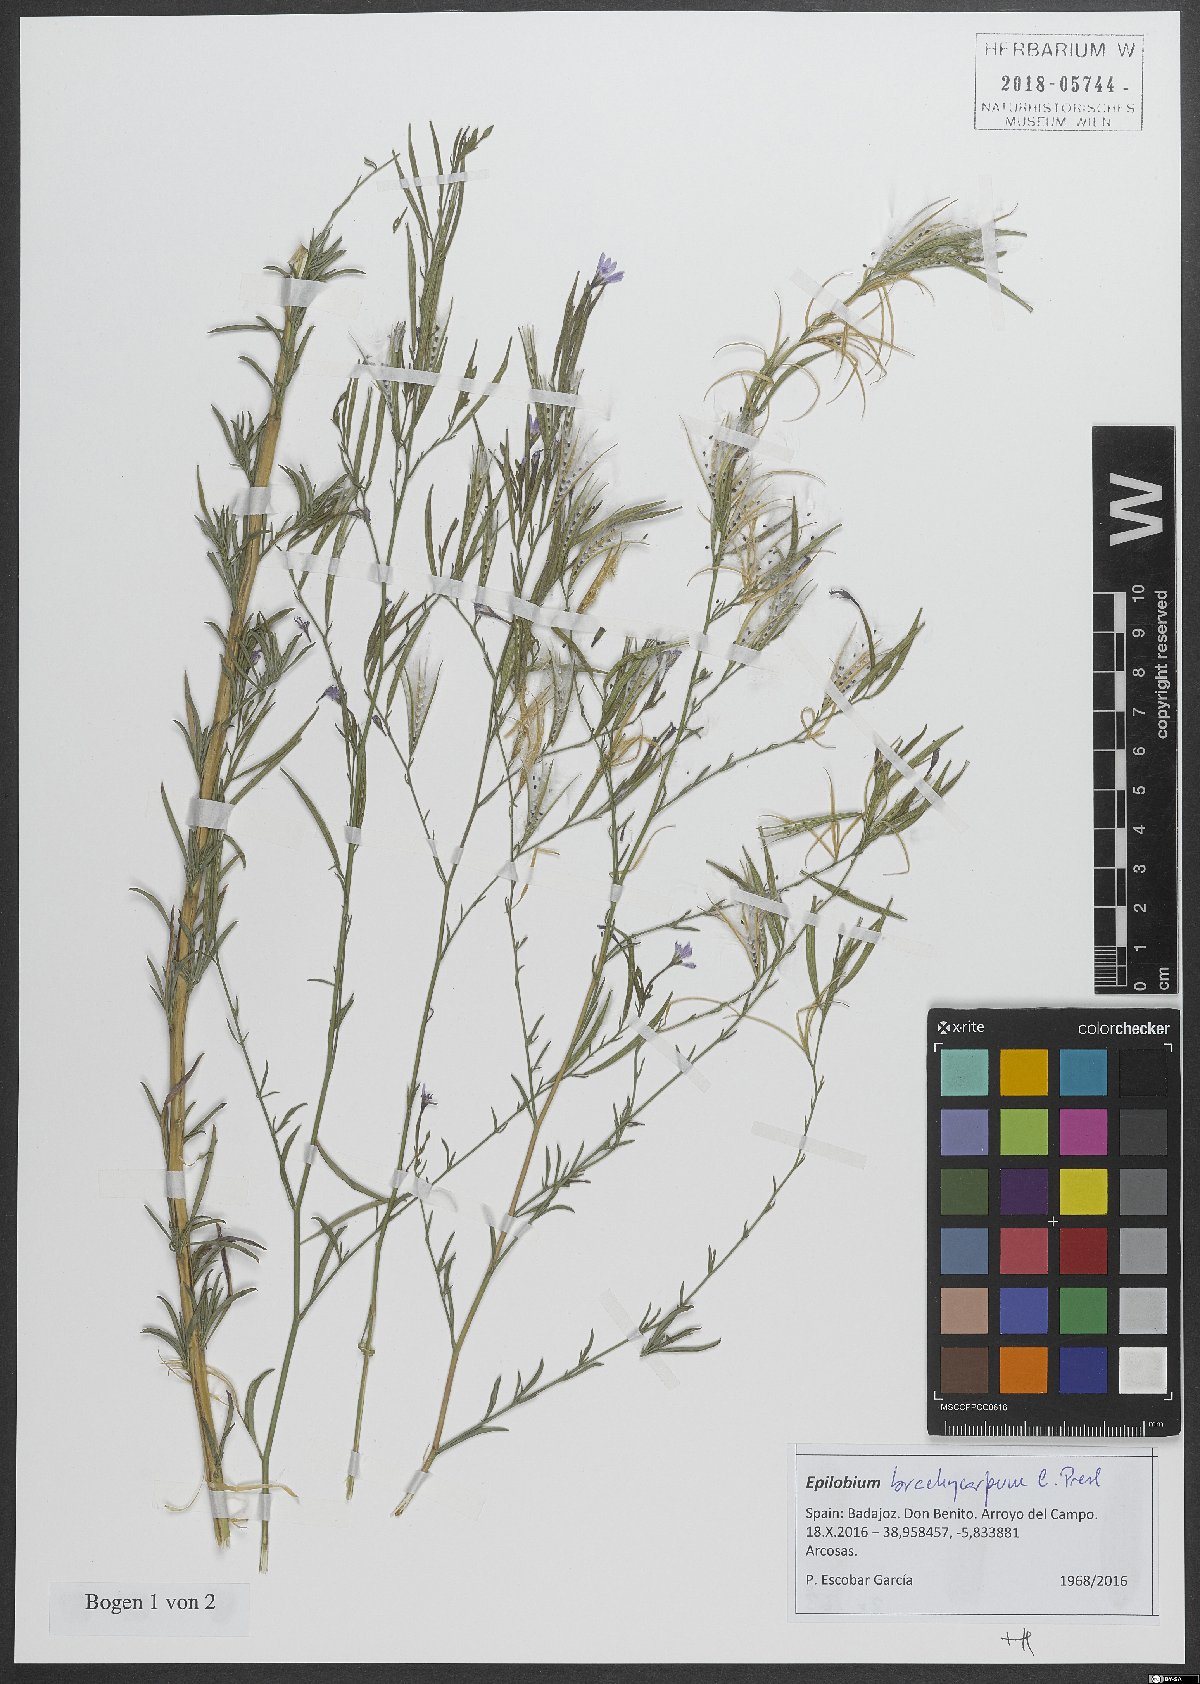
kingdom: Plantae
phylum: Tracheophyta
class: Magnoliopsida
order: Myrtales
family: Onagraceae
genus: Epilobium
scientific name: Epilobium brachycarpum
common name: Annual willowherb
